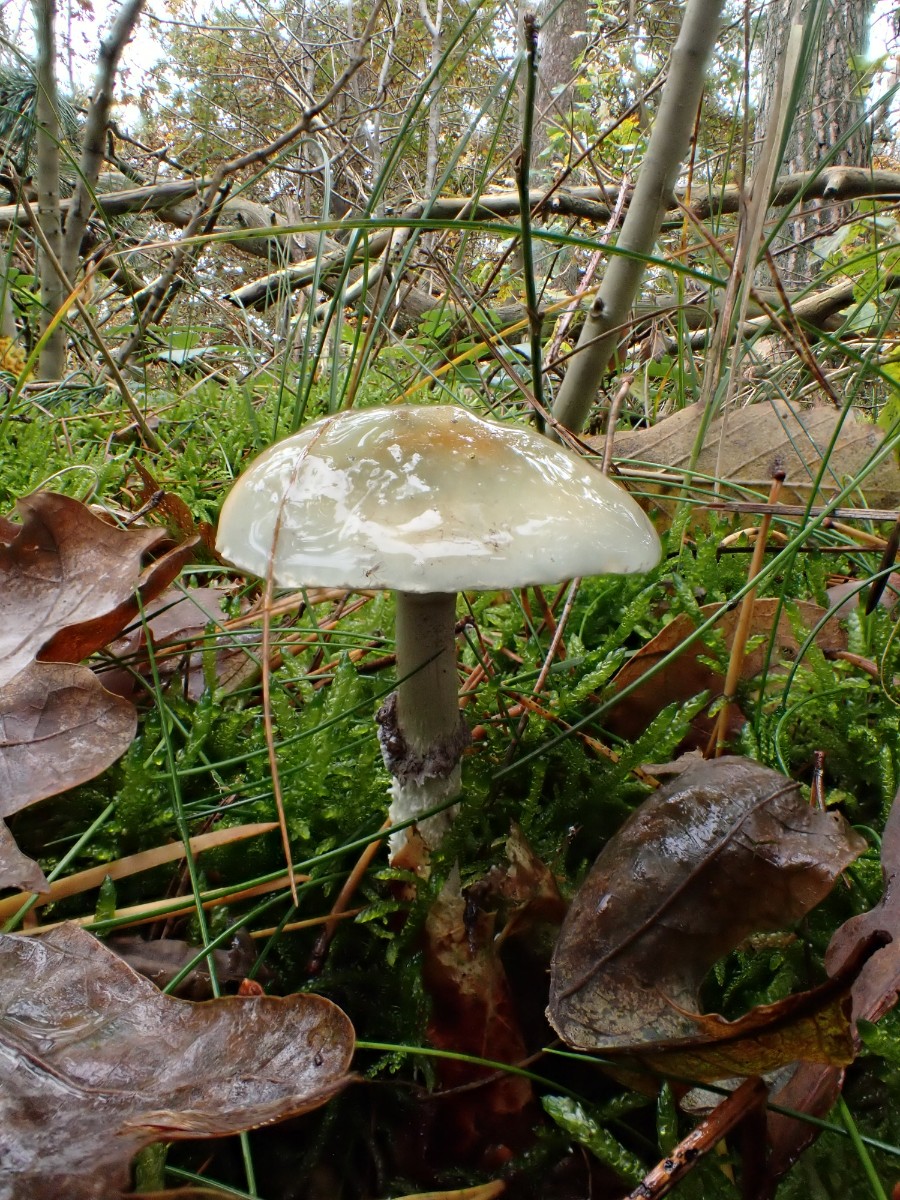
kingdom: Fungi
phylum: Basidiomycota
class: Agaricomycetes
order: Agaricales
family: Strophariaceae
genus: Stropharia
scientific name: Stropharia aeruginosa
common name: spanskgrøn bredblad
